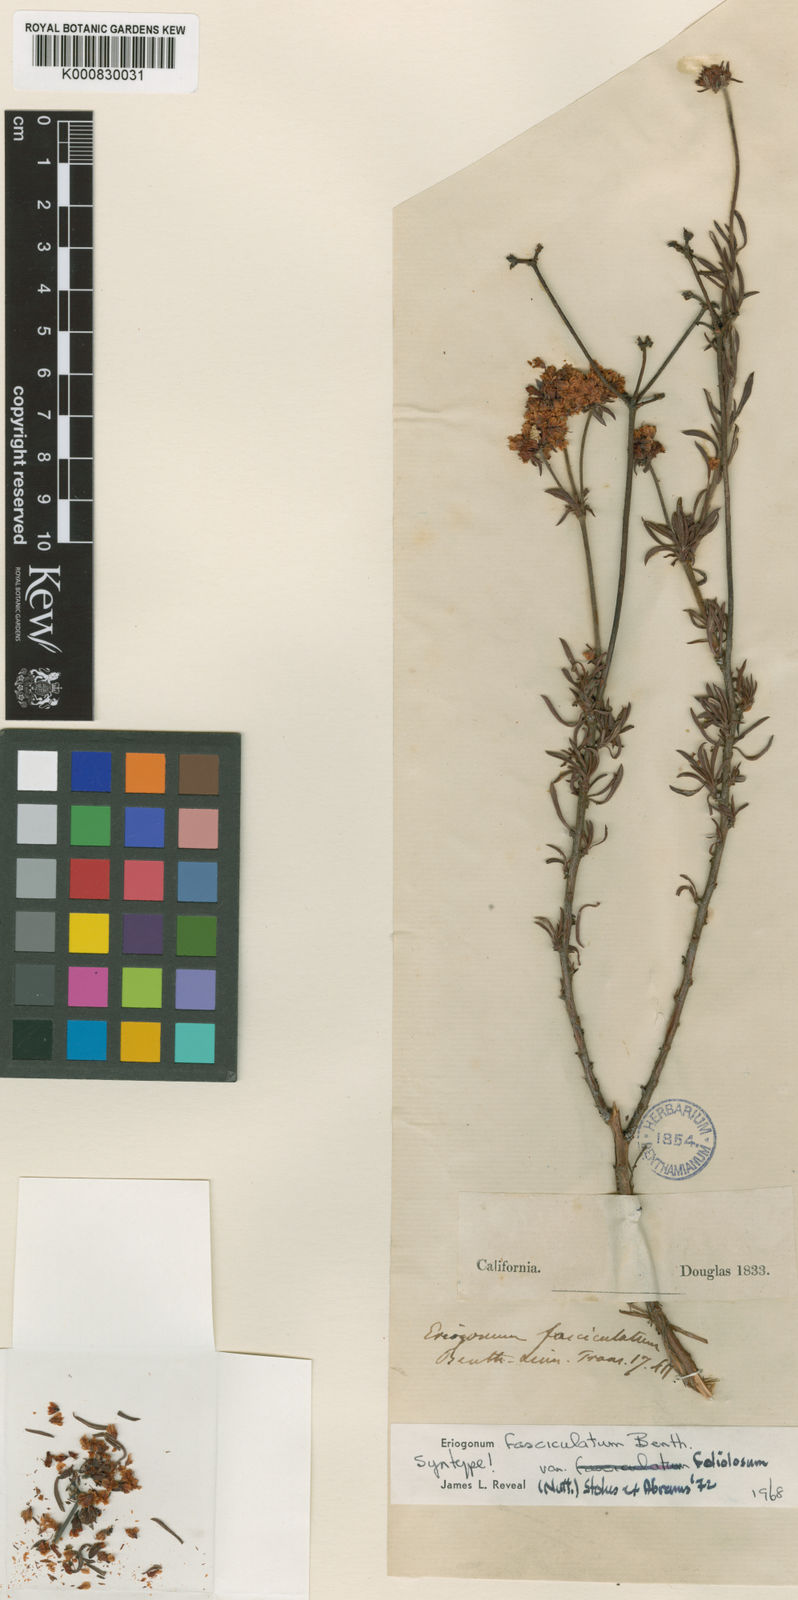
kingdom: Plantae
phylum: Tracheophyta
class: Magnoliopsida
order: Caryophyllales
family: Polygonaceae
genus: Eriogonum
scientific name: Eriogonum fasciculatum
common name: California wild buckwheat
